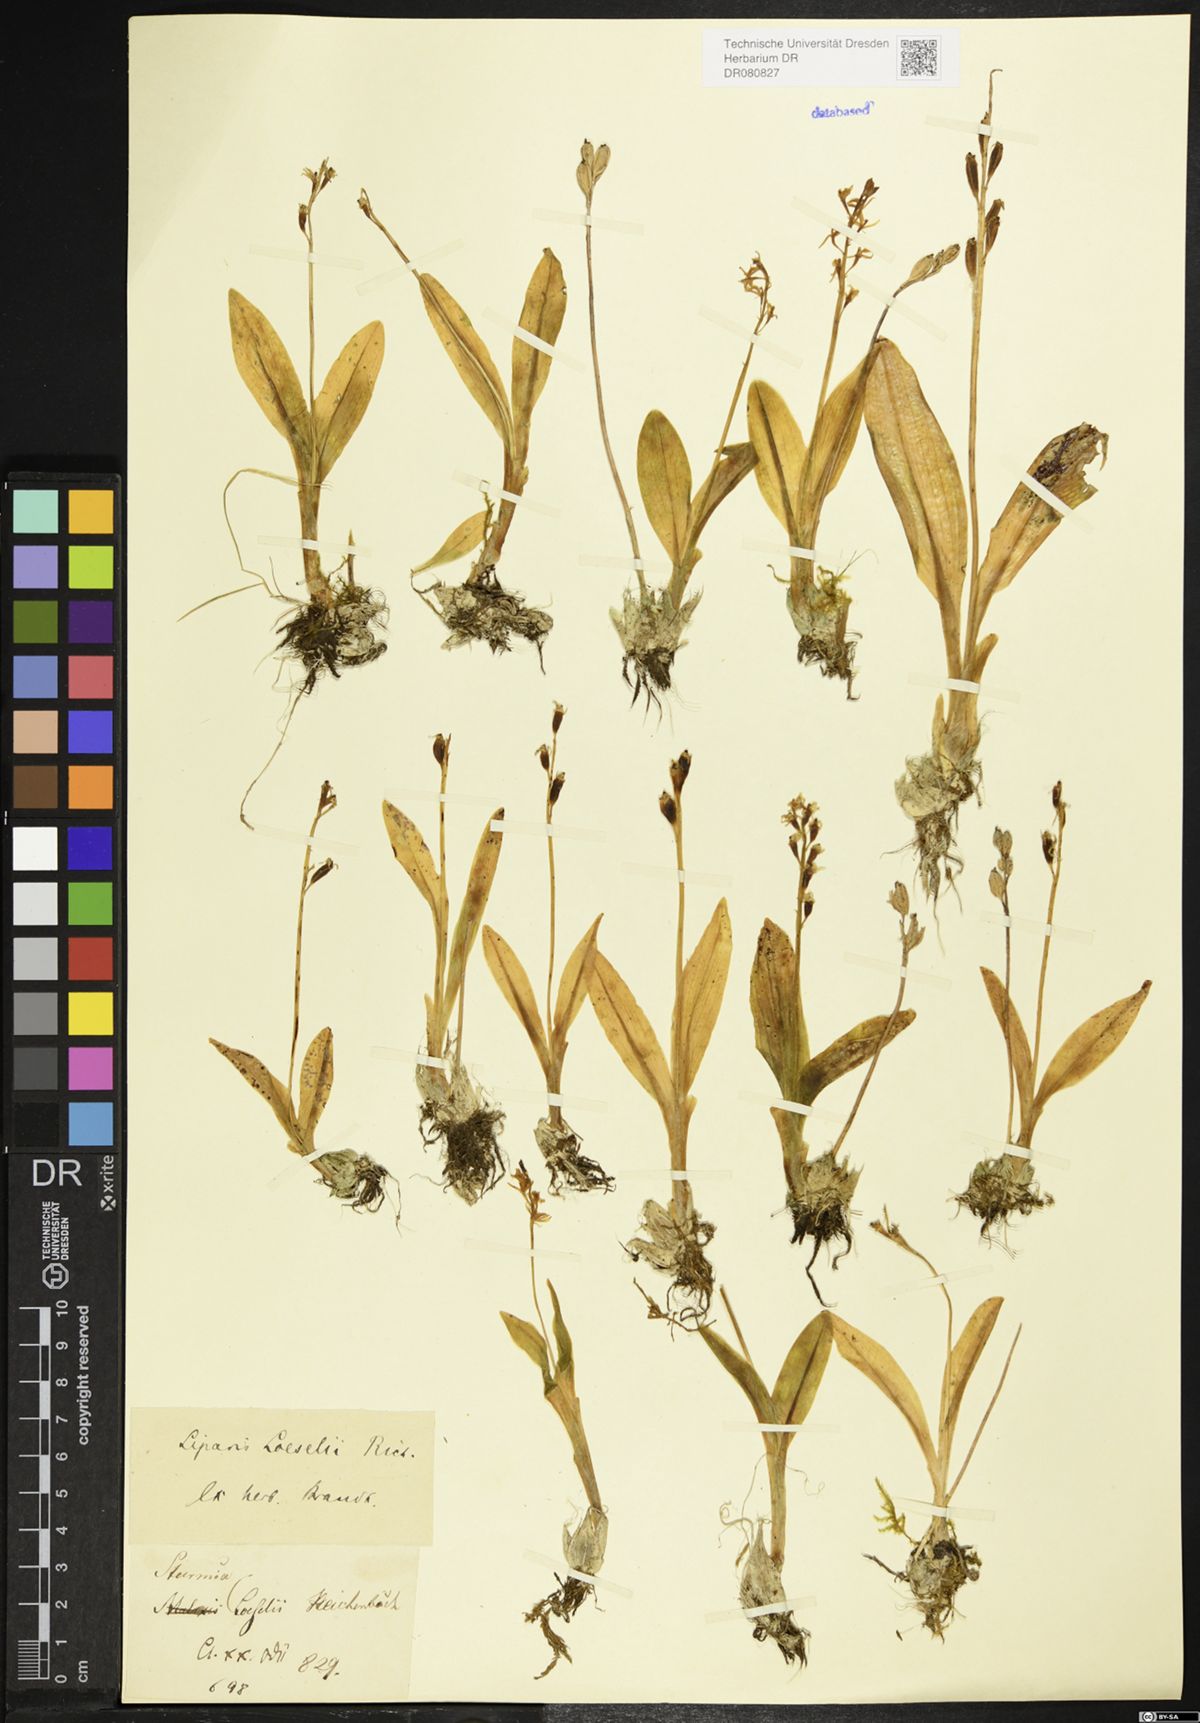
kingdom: Animalia
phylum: Arthropoda
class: Insecta
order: Coleoptera
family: Curculionidae
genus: Liparis
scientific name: Liparis loeselii
